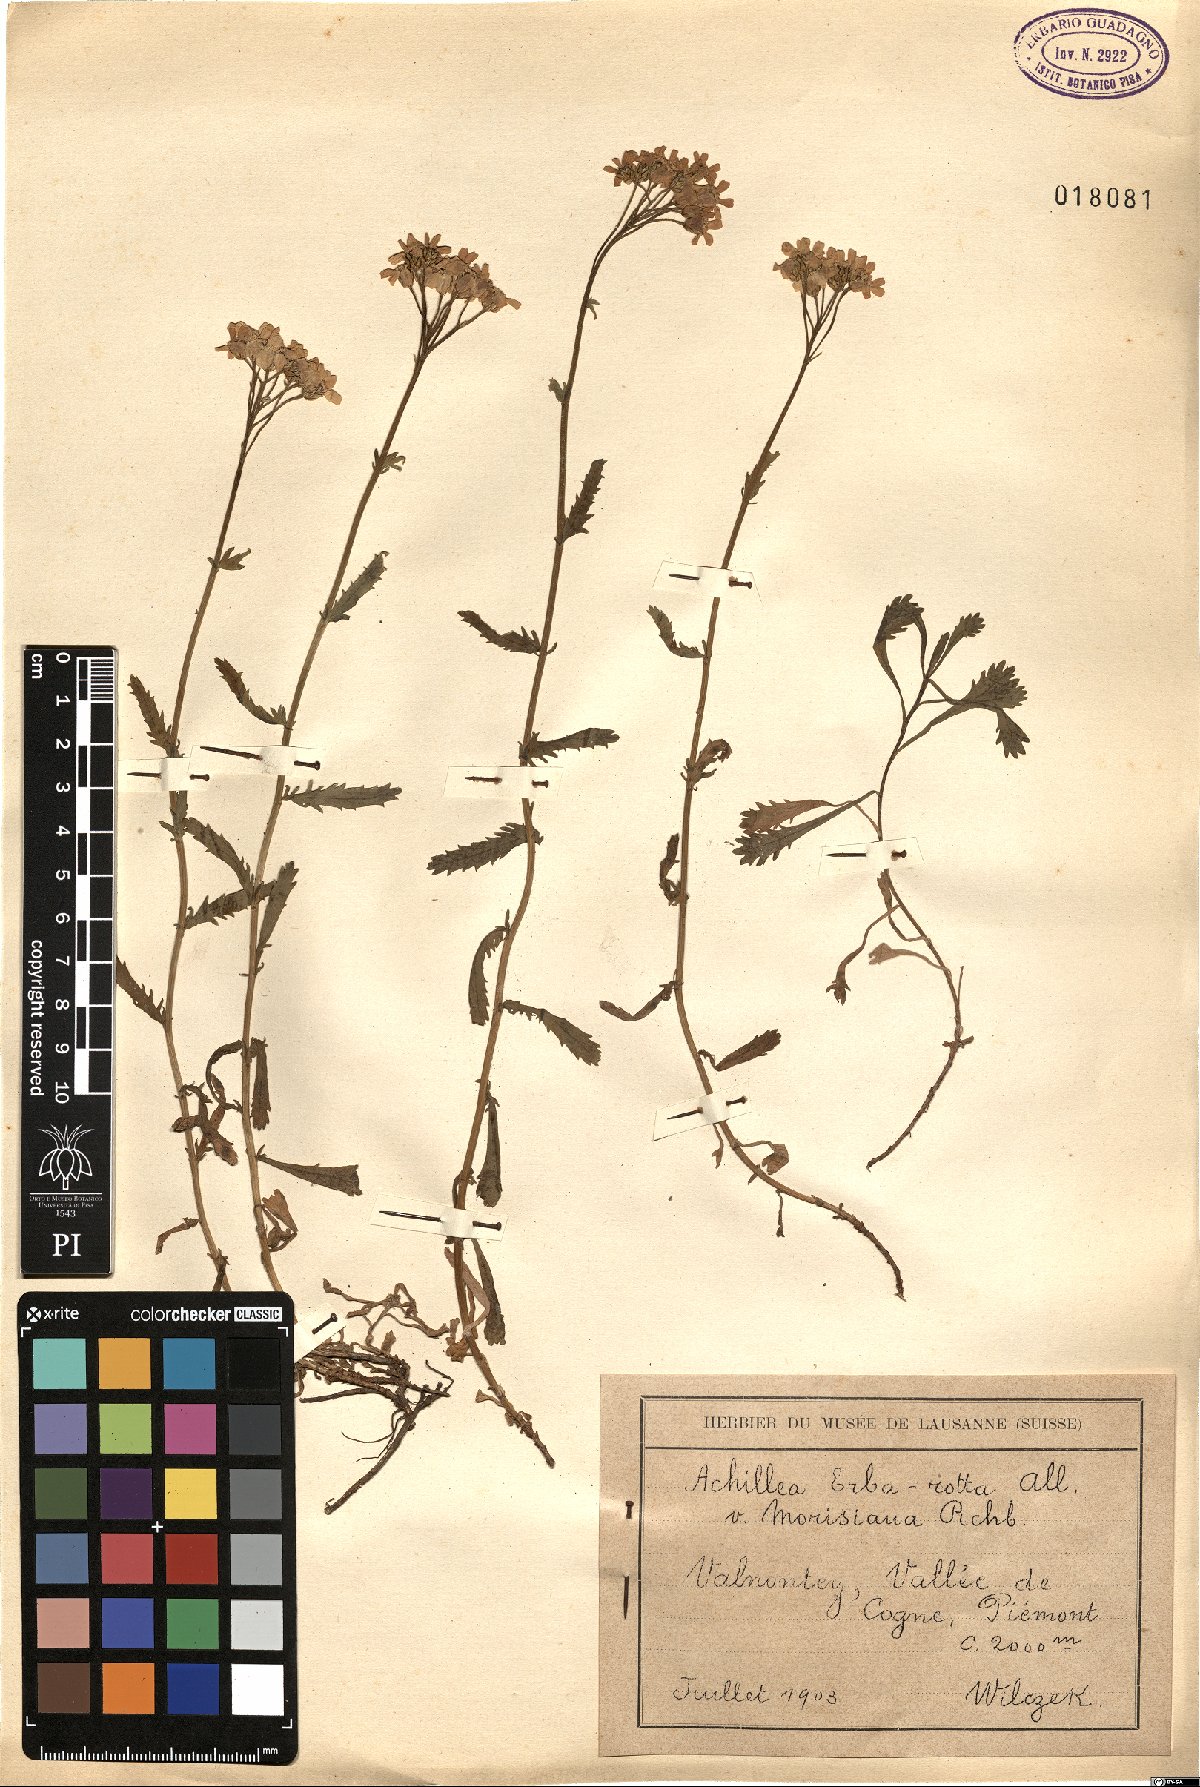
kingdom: Plantae
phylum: Tracheophyta
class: Magnoliopsida
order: Asterales
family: Asteraceae
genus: Achillea
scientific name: Achillea intermedia
